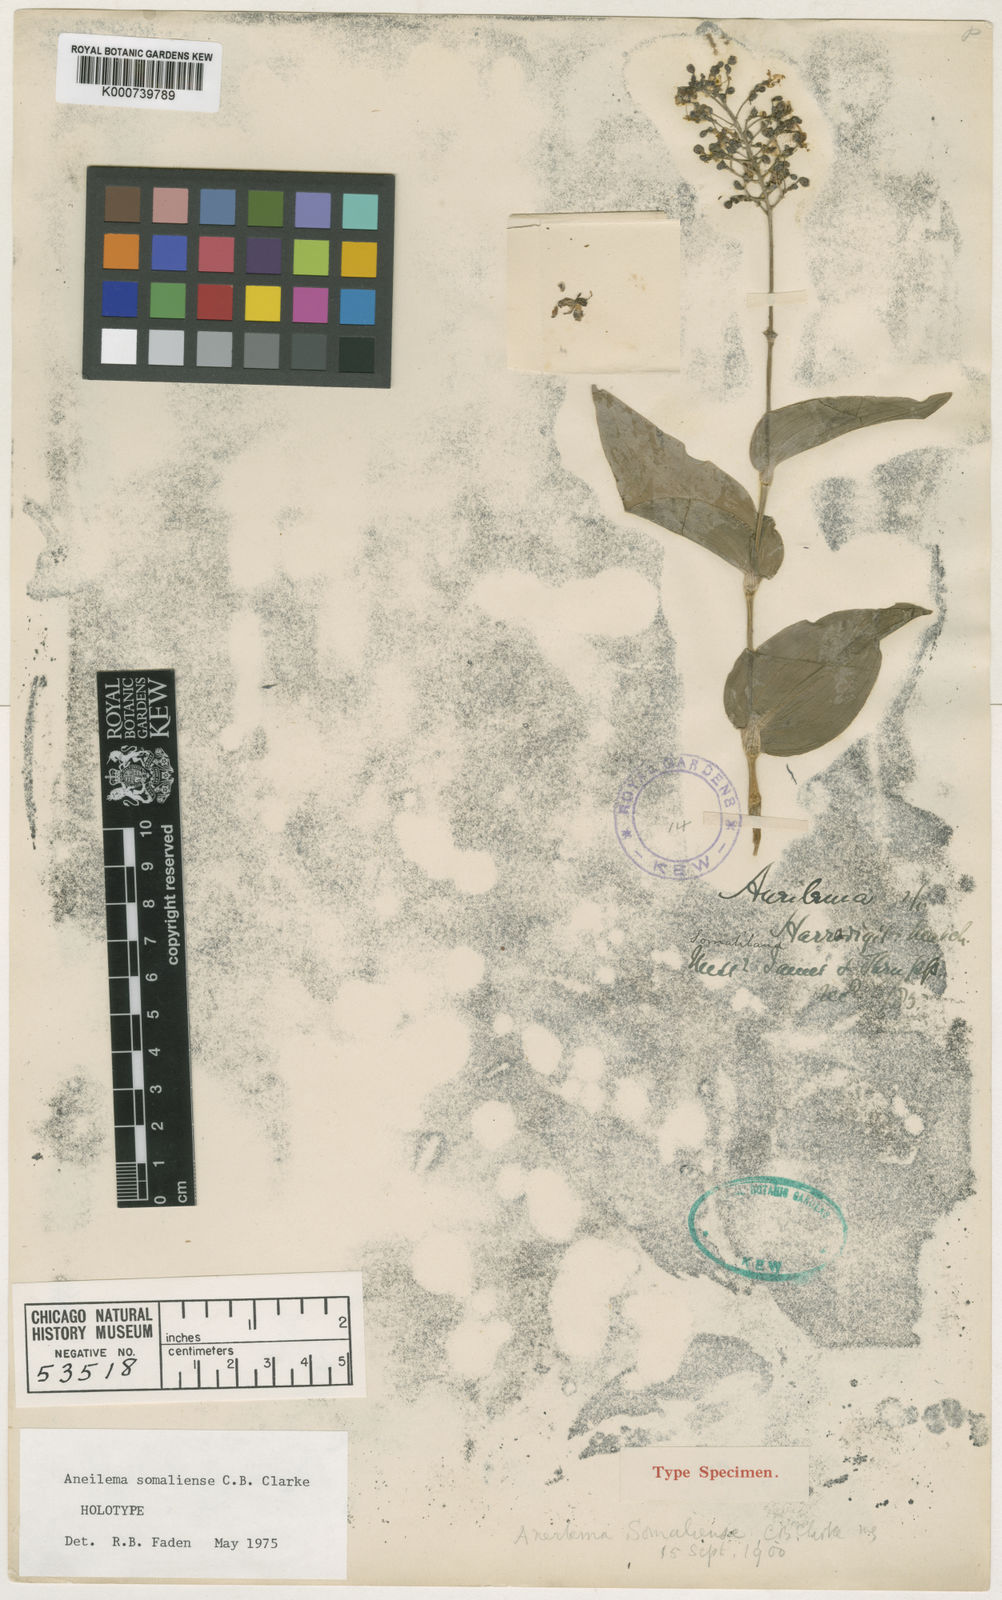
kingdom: Plantae
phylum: Tracheophyta
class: Liliopsida
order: Commelinales
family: Commelinaceae
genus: Aneilema
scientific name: Aneilema somaliense
